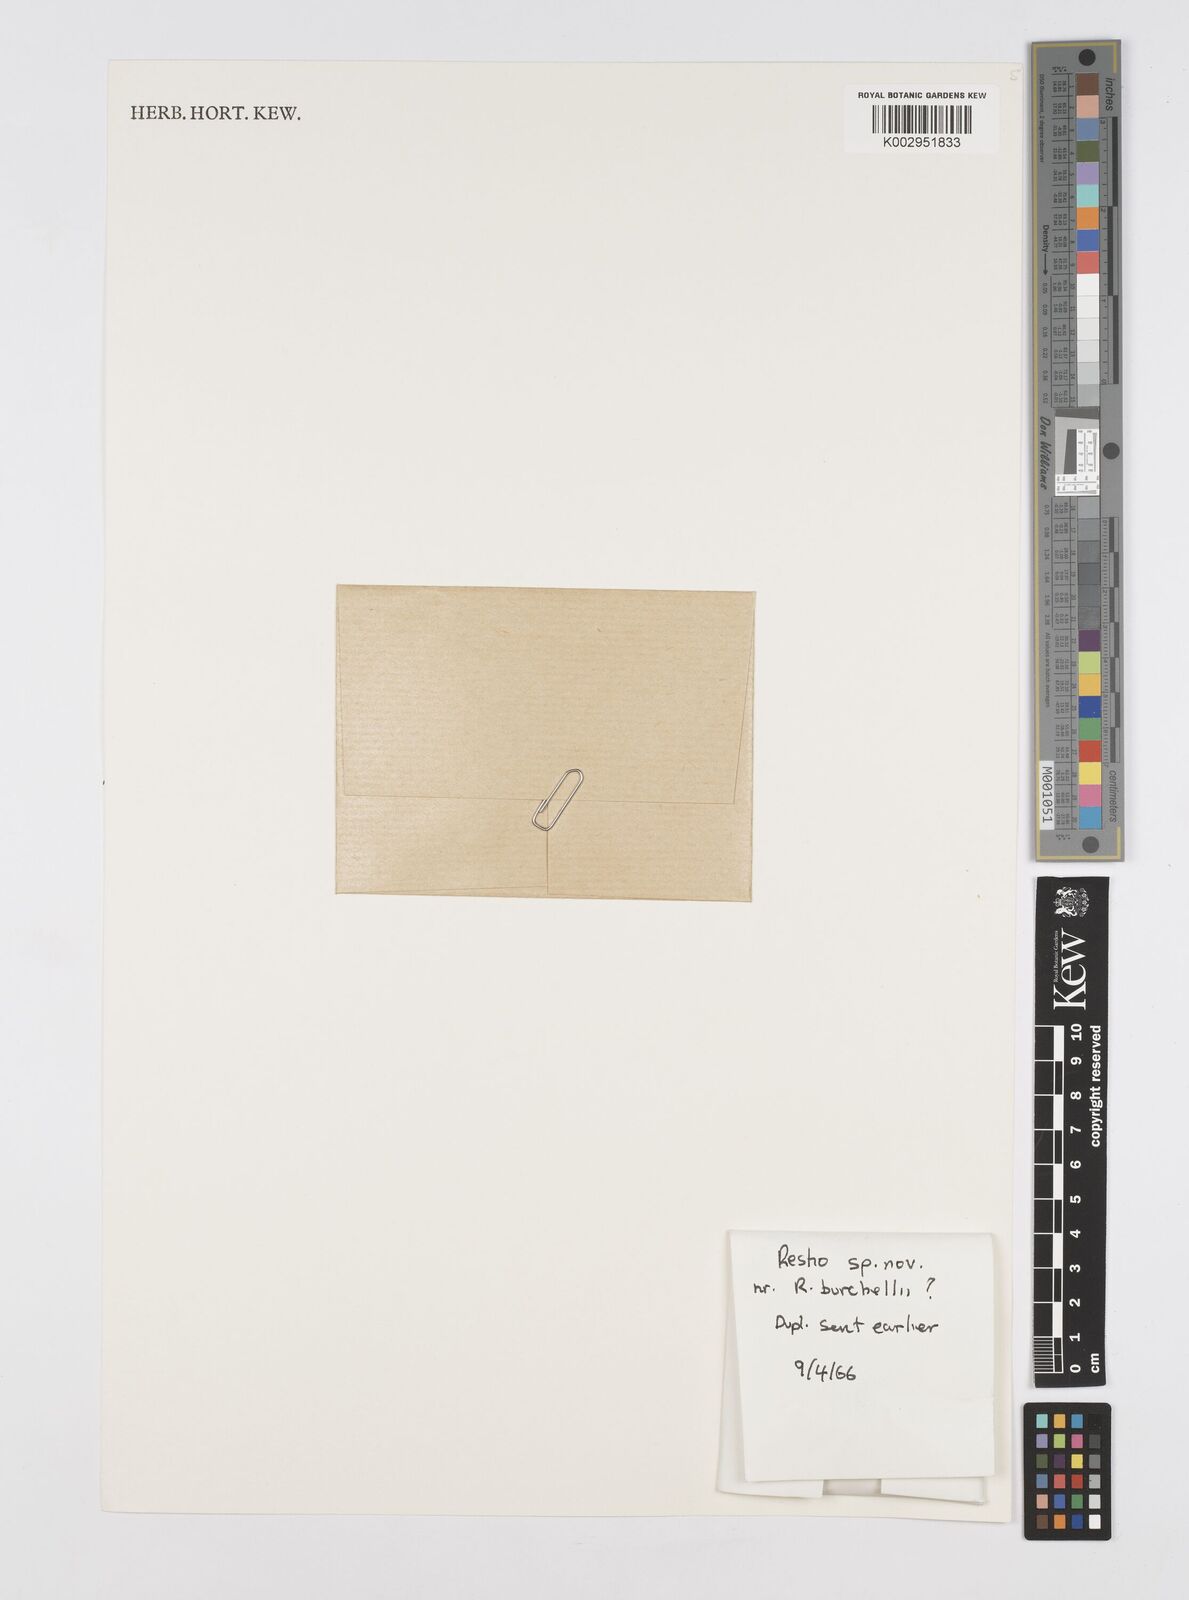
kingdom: Plantae
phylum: Tracheophyta
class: Liliopsida
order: Poales
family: Restionaceae
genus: Restio
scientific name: Restio burchellii
